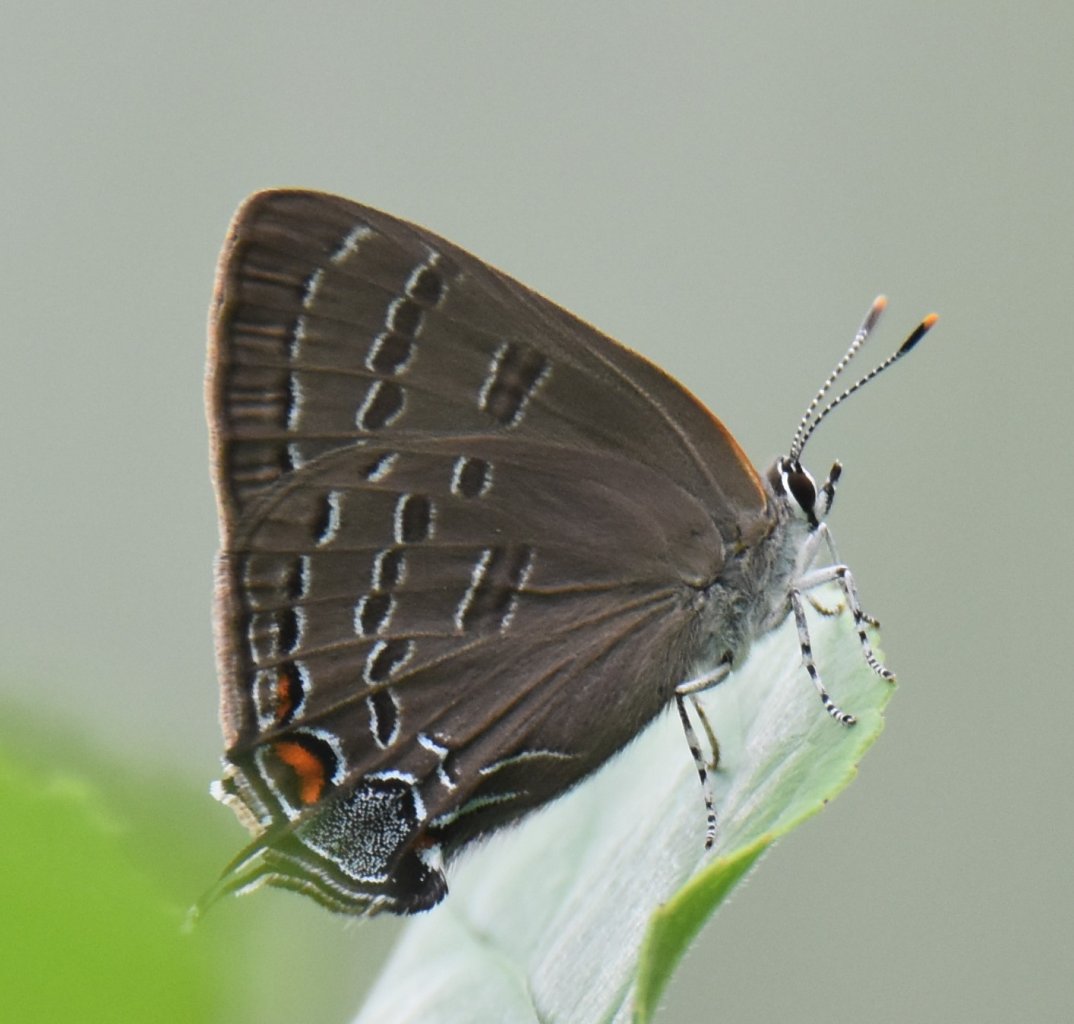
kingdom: Animalia
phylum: Arthropoda
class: Insecta
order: Lepidoptera
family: Lycaenidae
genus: Satyrium
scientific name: Satyrium calanus
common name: Banded Hairstreak
